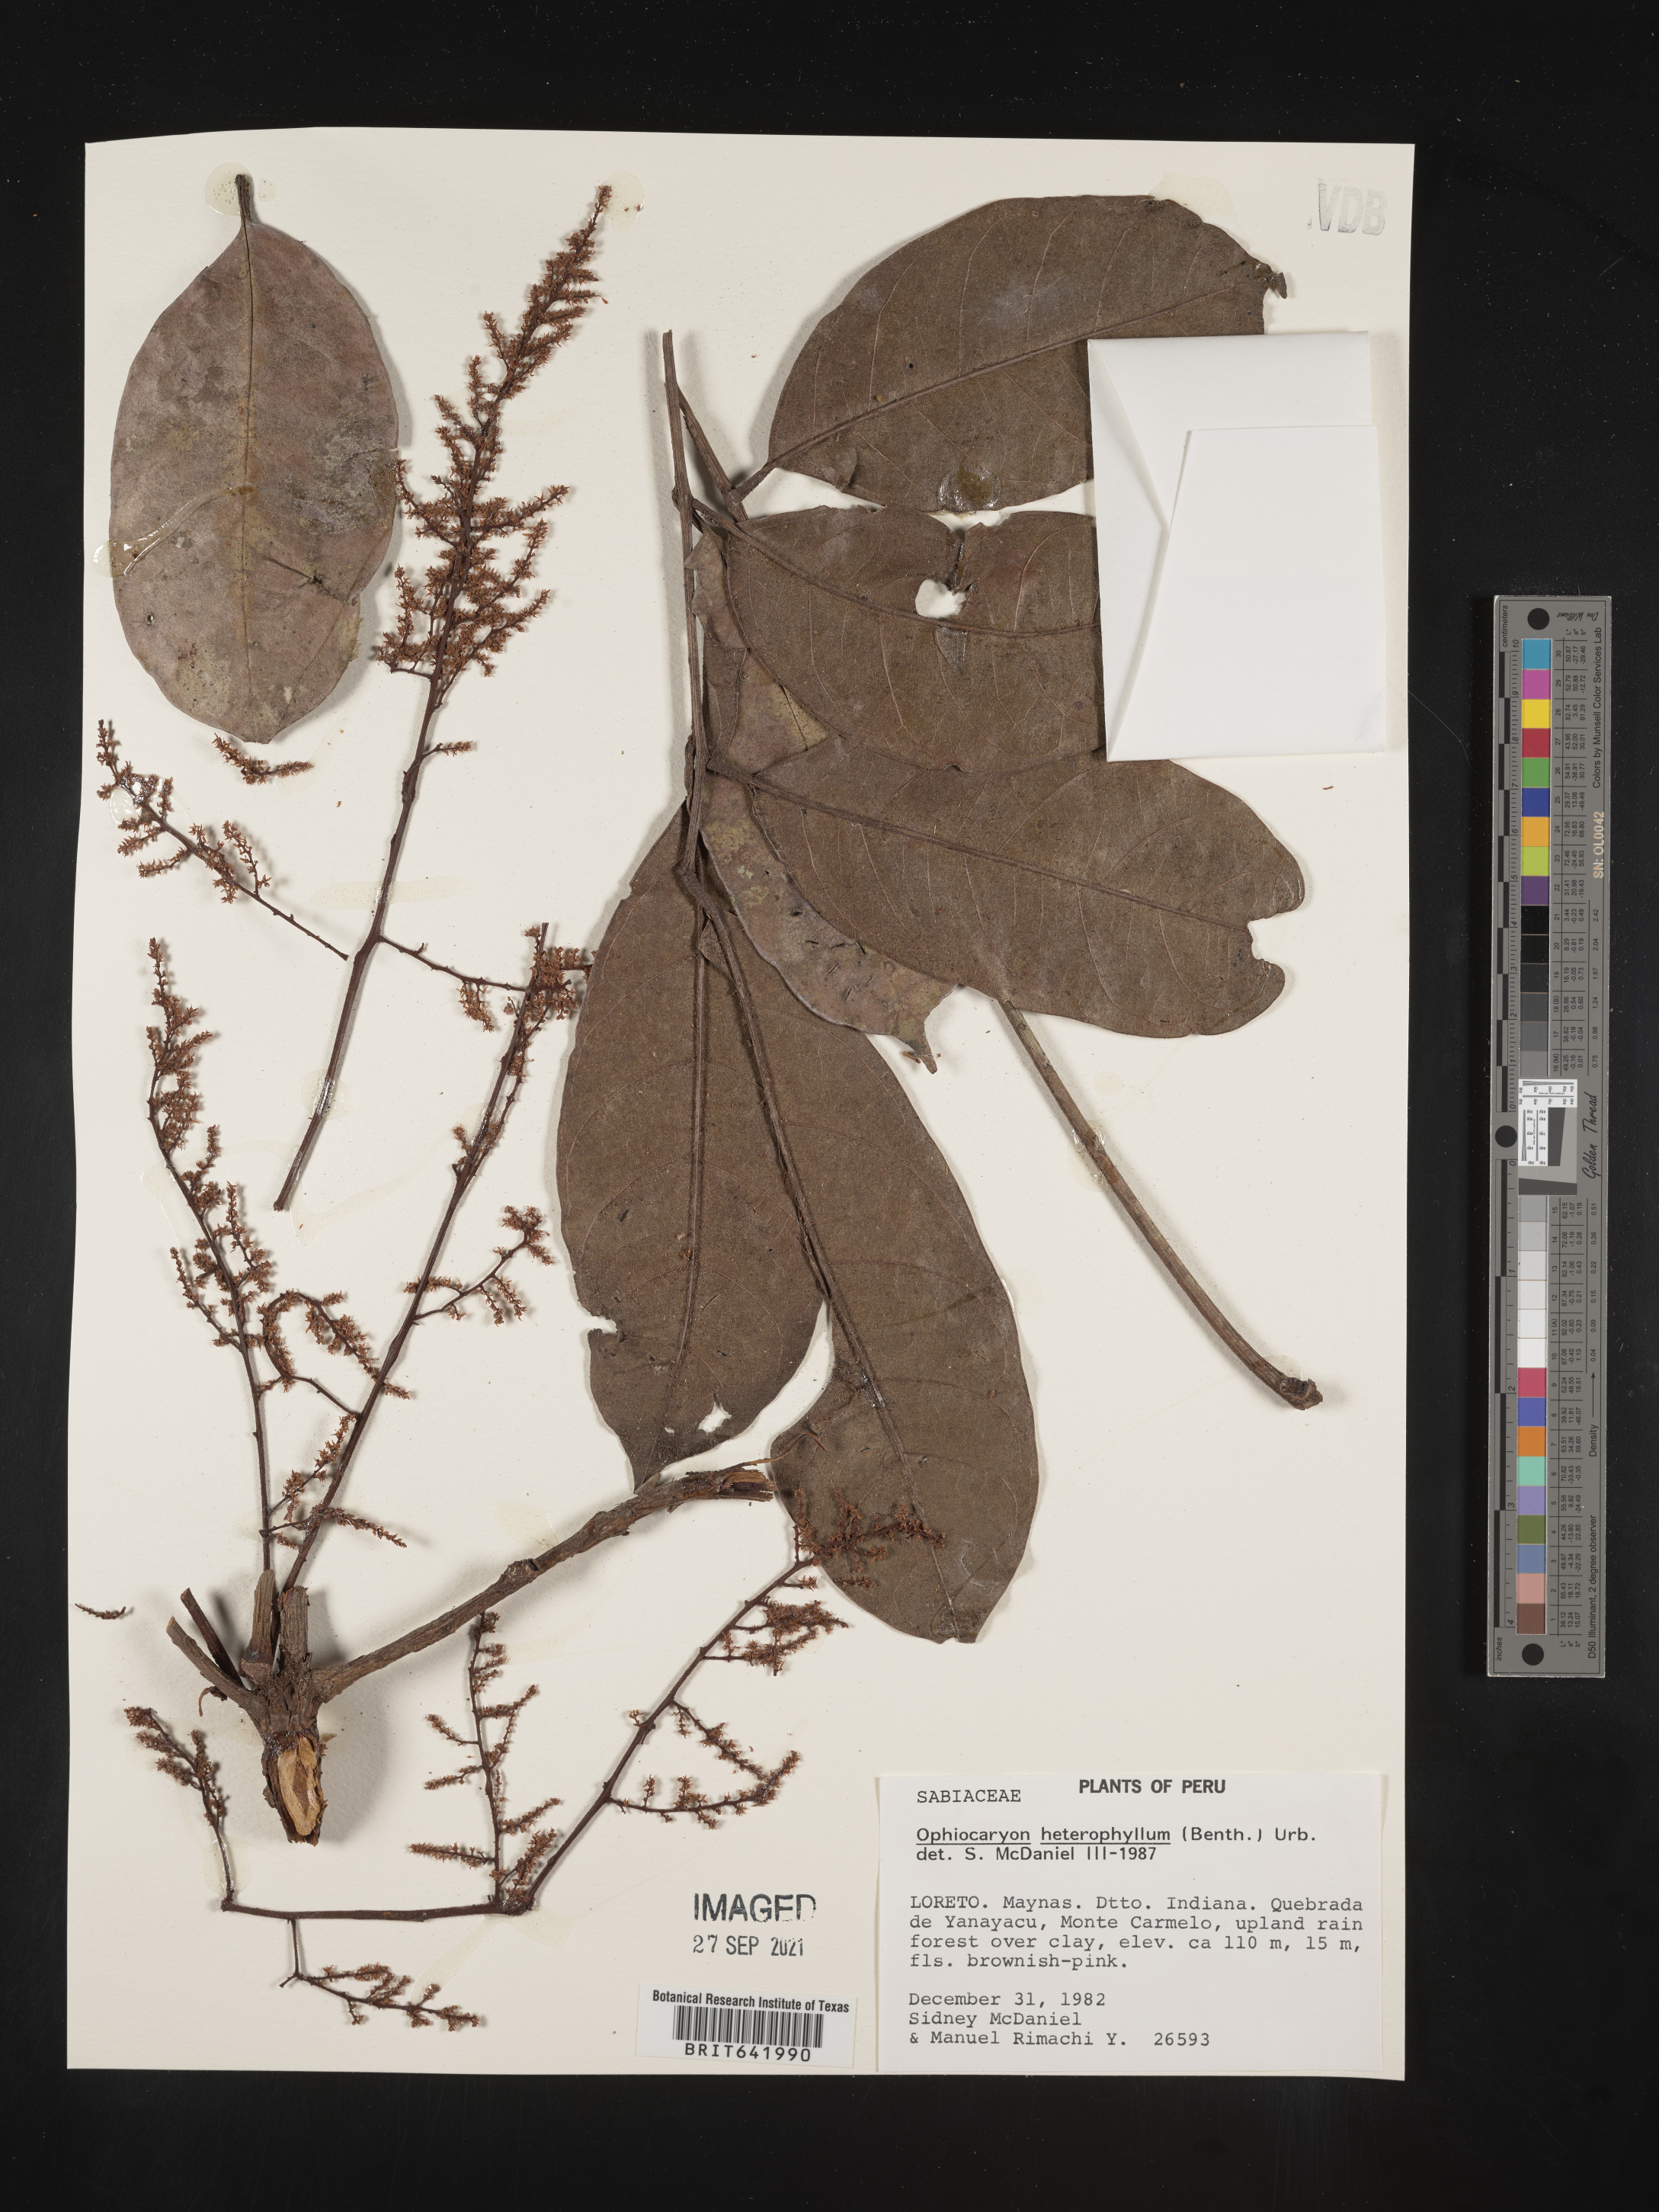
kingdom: Plantae
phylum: Tracheophyta
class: Magnoliopsida
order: Proteales
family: Sabiaceae
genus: Ophiocaryon
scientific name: Ophiocaryon
